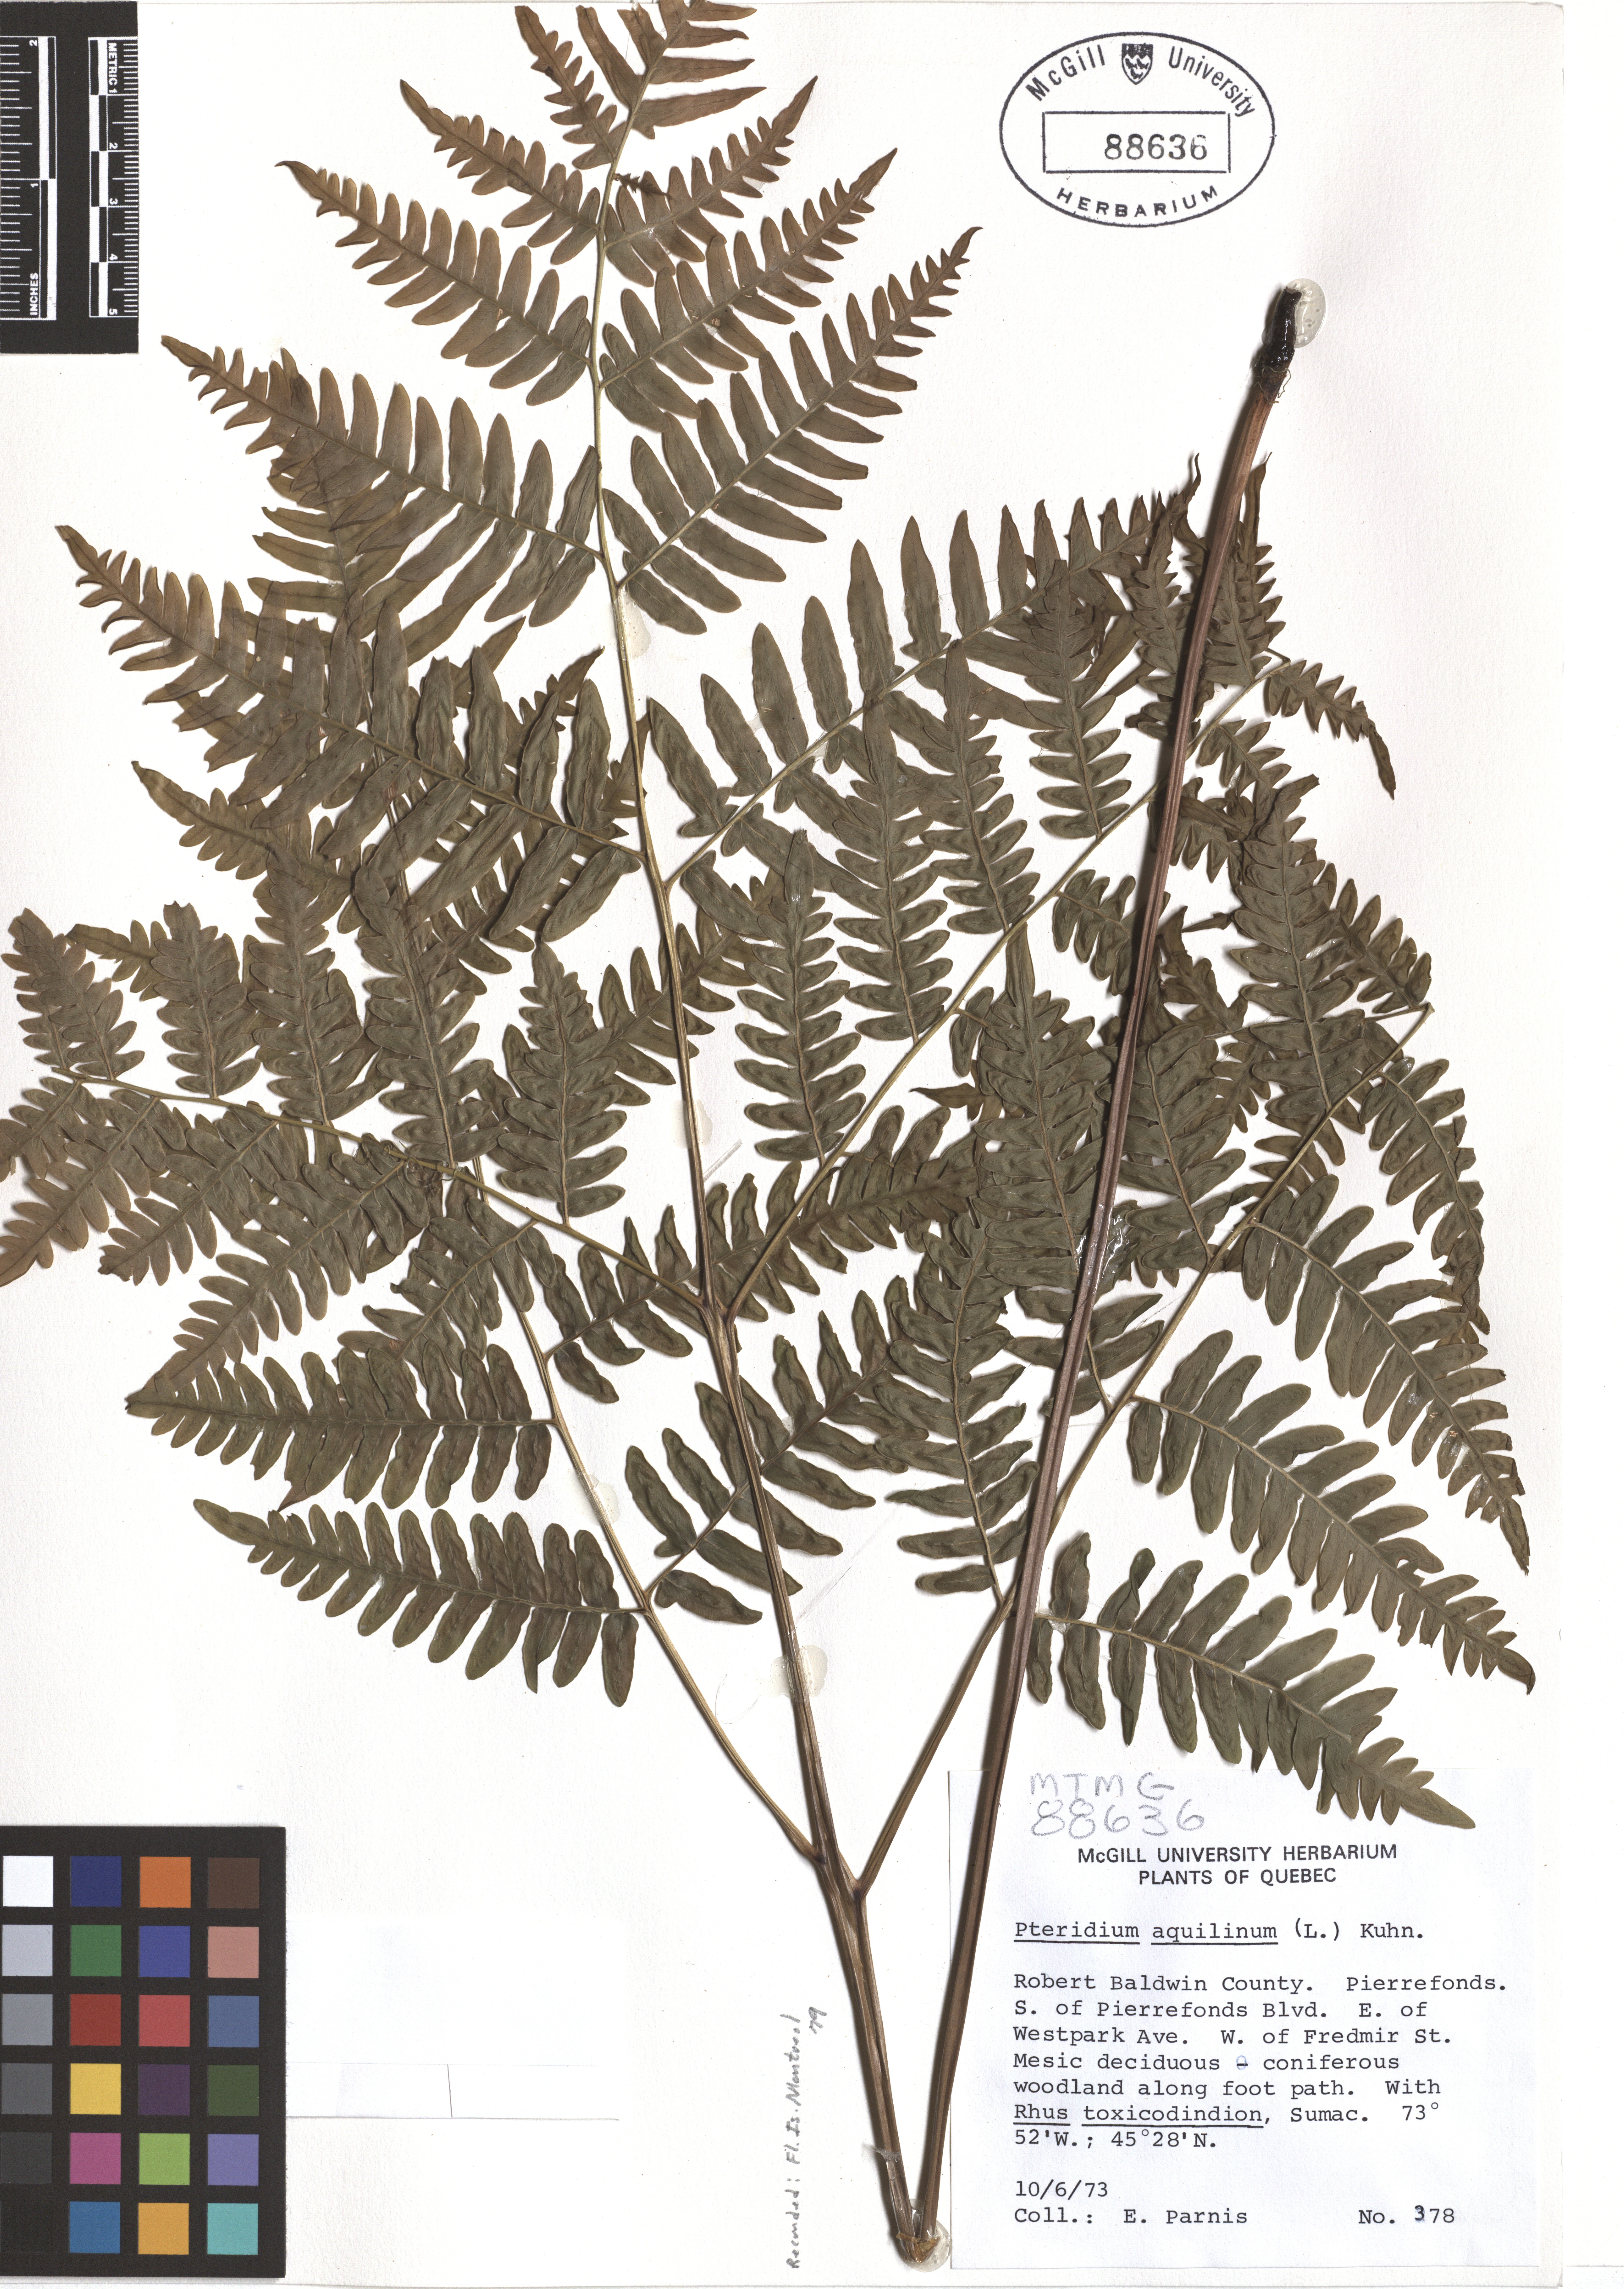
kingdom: Plantae
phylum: Tracheophyta
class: Polypodiopsida
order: Polypodiales
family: Dennstaedtiaceae
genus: Pteridium
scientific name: Pteridium aquilinum
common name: Bracken
